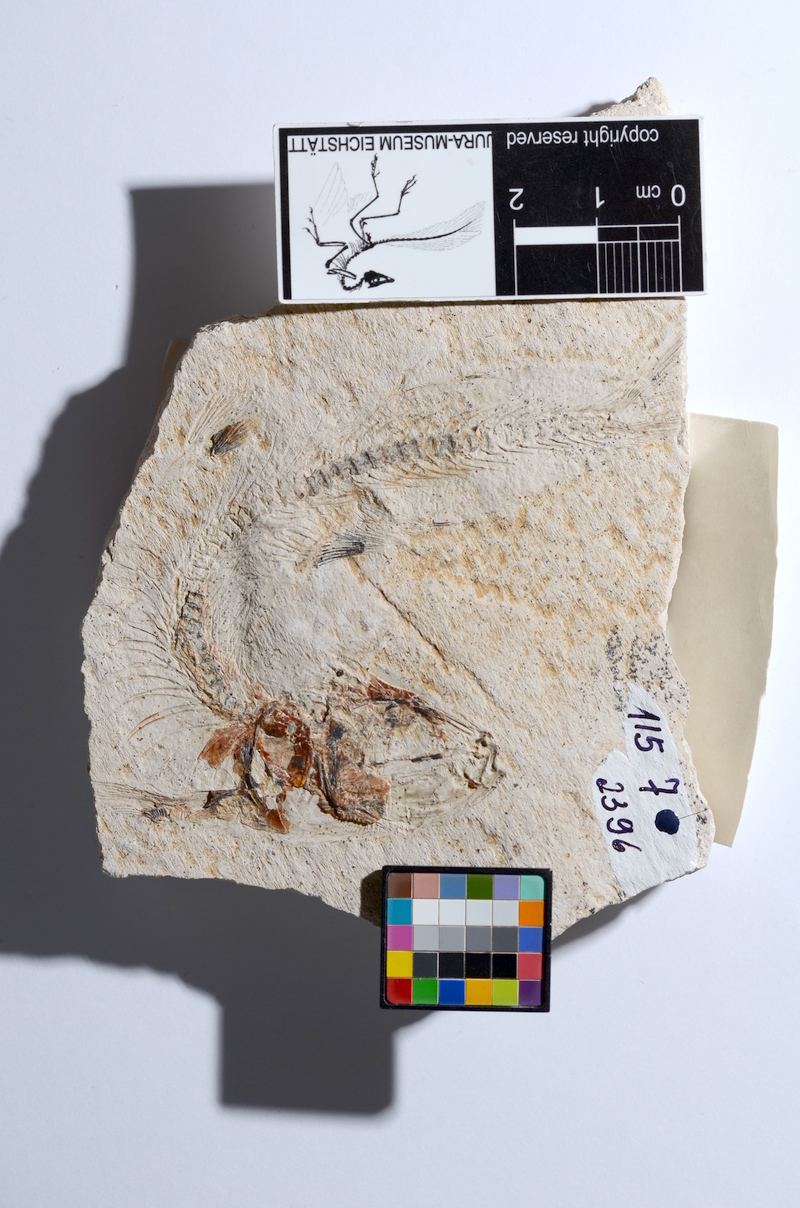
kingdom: Animalia
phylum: Chordata
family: Ascalaboidae
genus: Tharsis
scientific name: Tharsis
